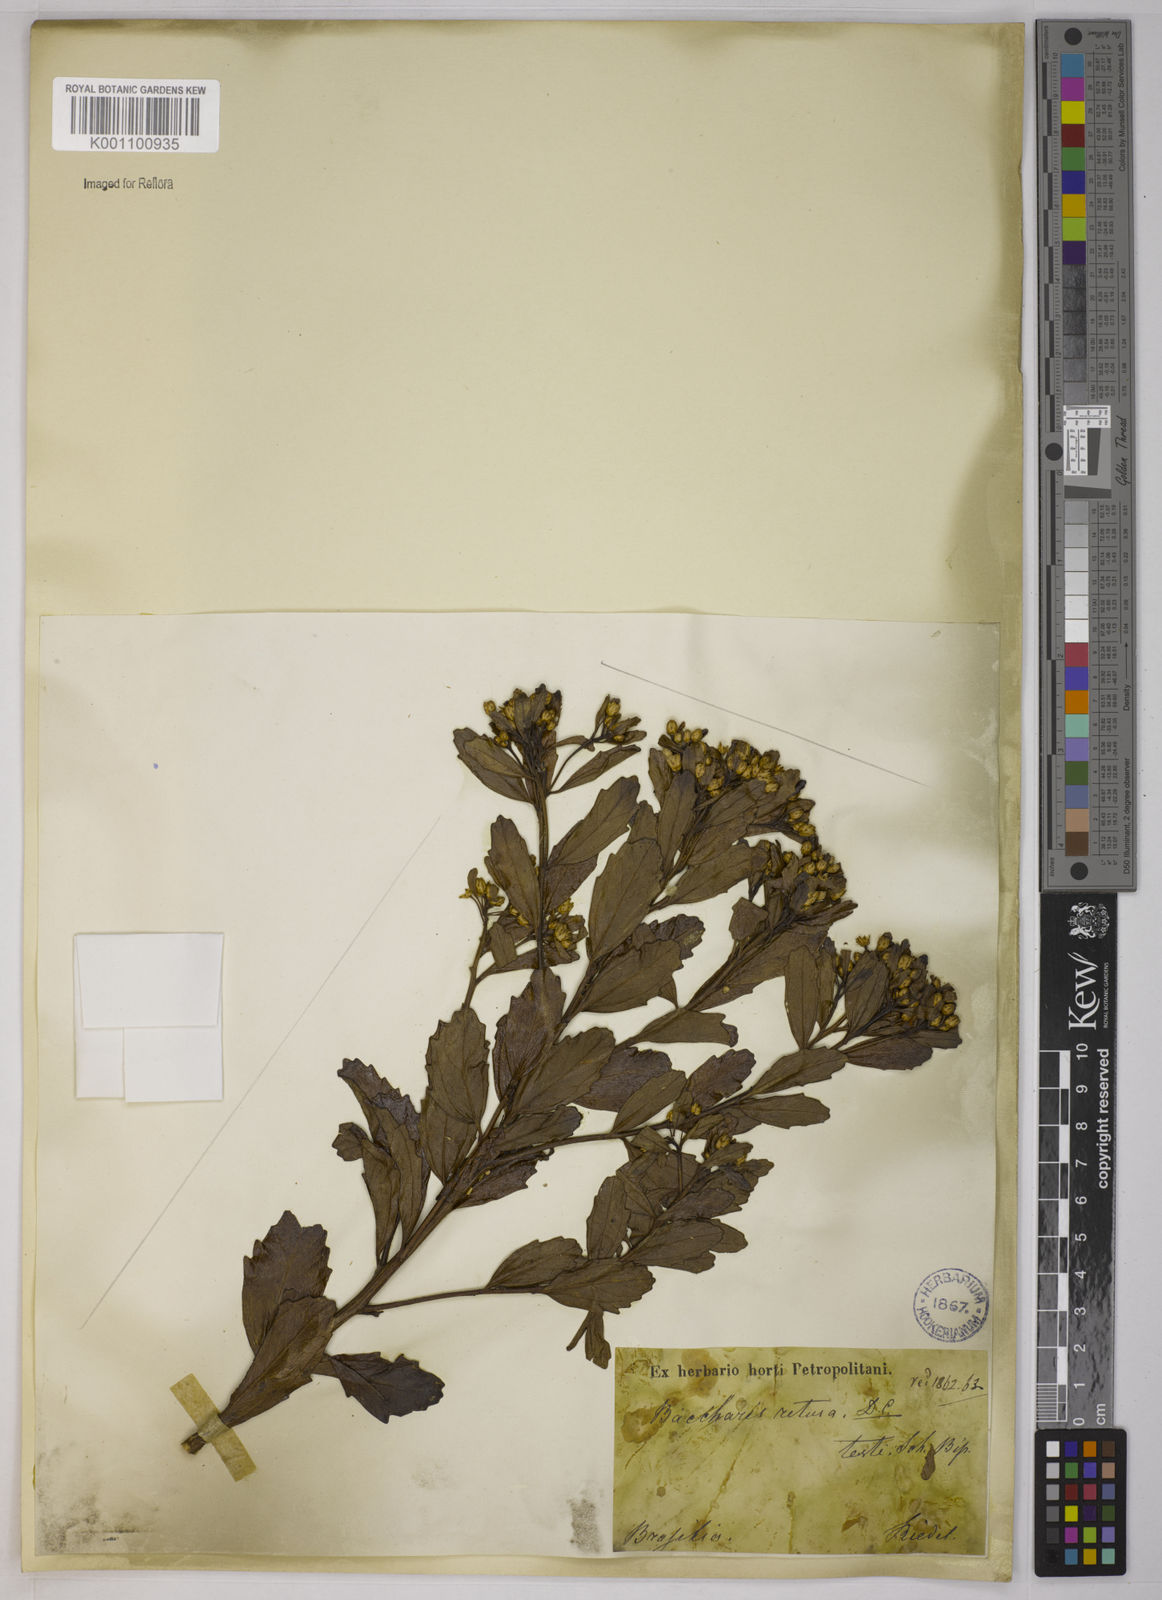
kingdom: Plantae
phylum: Tracheophyta
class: Magnoliopsida
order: Asterales
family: Asteraceae
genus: Baccharis
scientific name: Baccharis retusa
